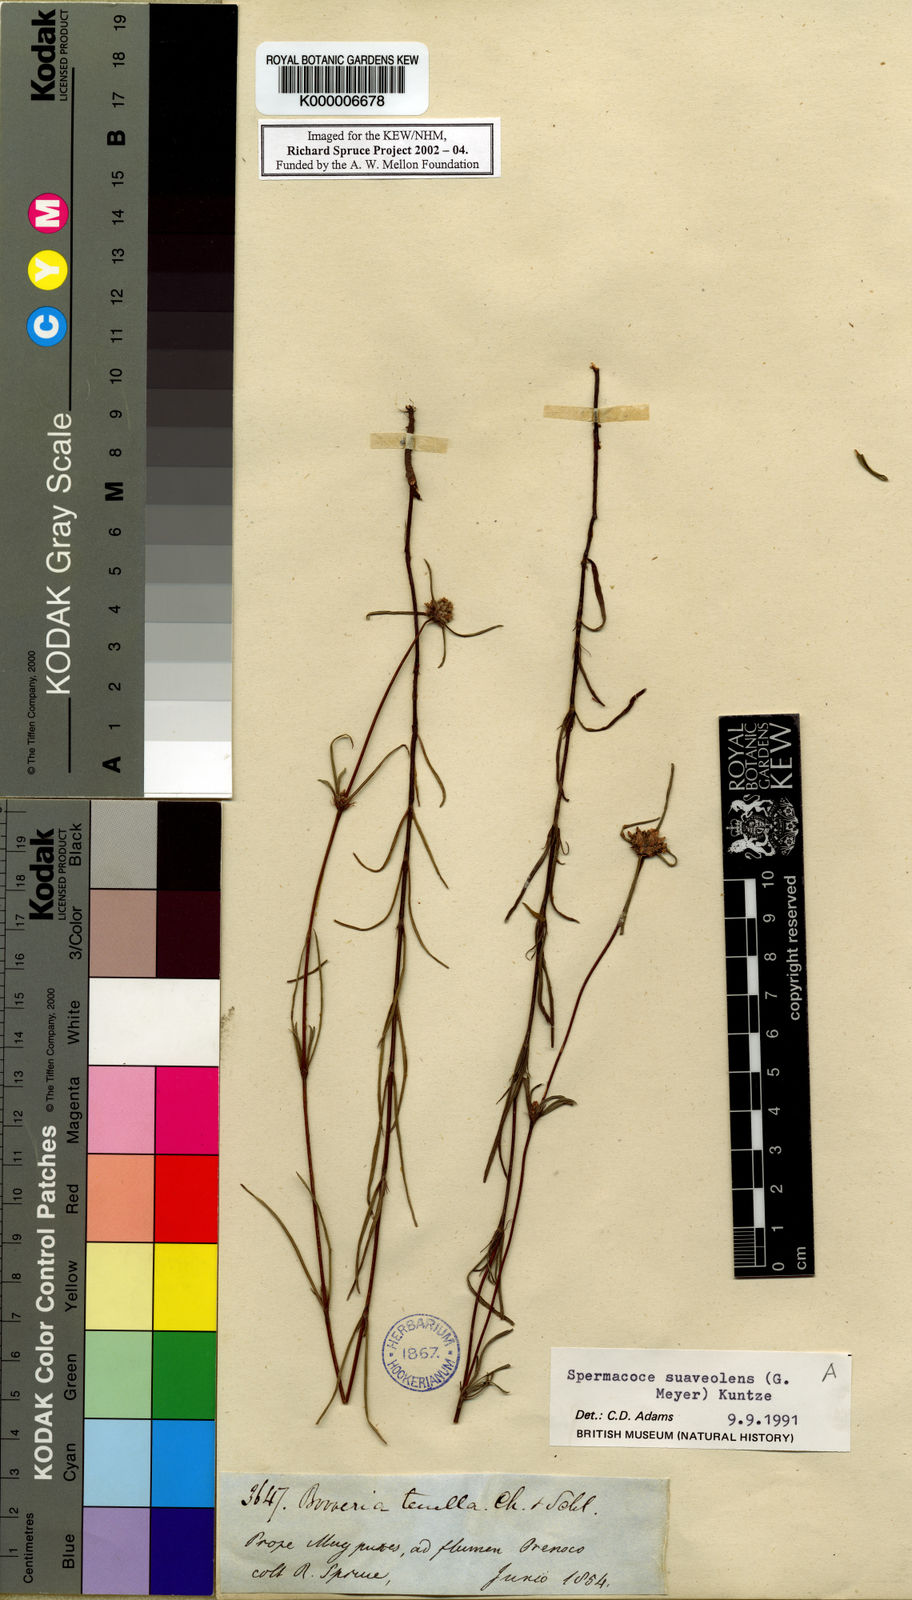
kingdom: Plantae
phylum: Tracheophyta
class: Magnoliopsida
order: Gentianales
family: Rubiaceae
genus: Spermacoce
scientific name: Spermacoce suaveolens
